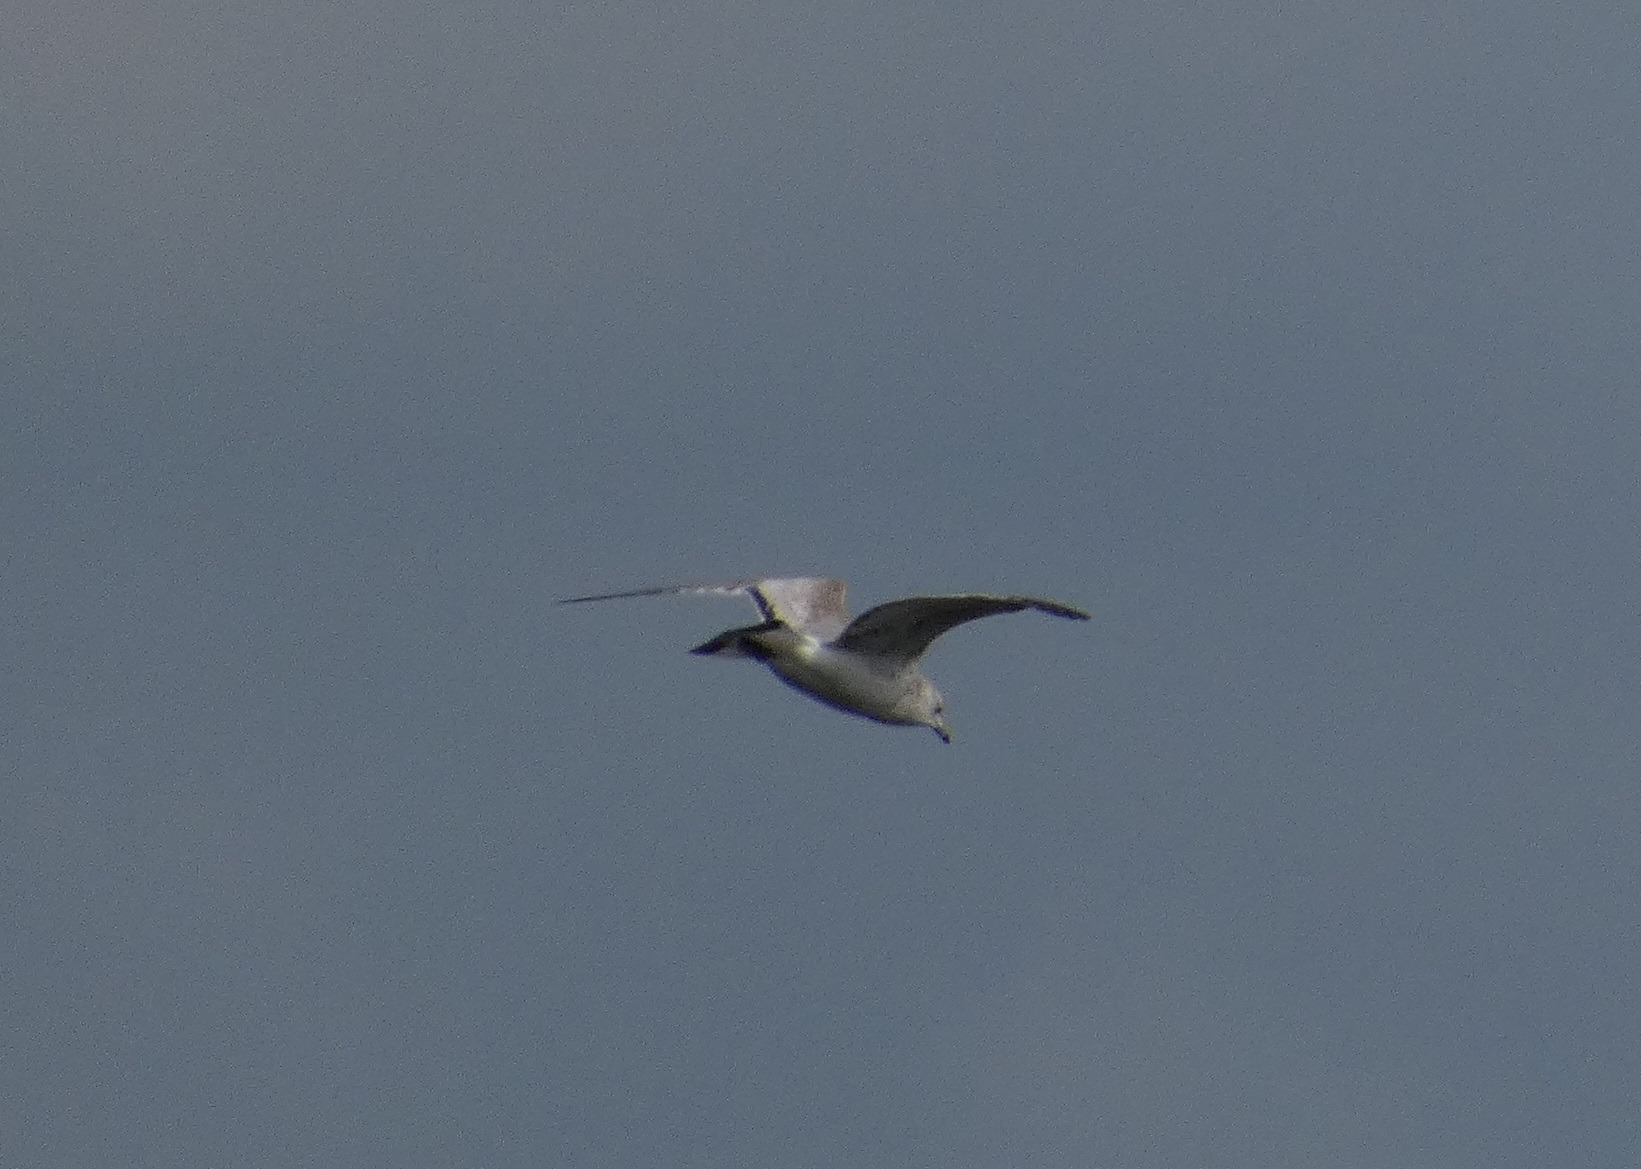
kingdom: Animalia
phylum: Chordata
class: Aves
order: Charadriiformes
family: Laridae
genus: Larus
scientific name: Larus canus
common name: Stormmåge
